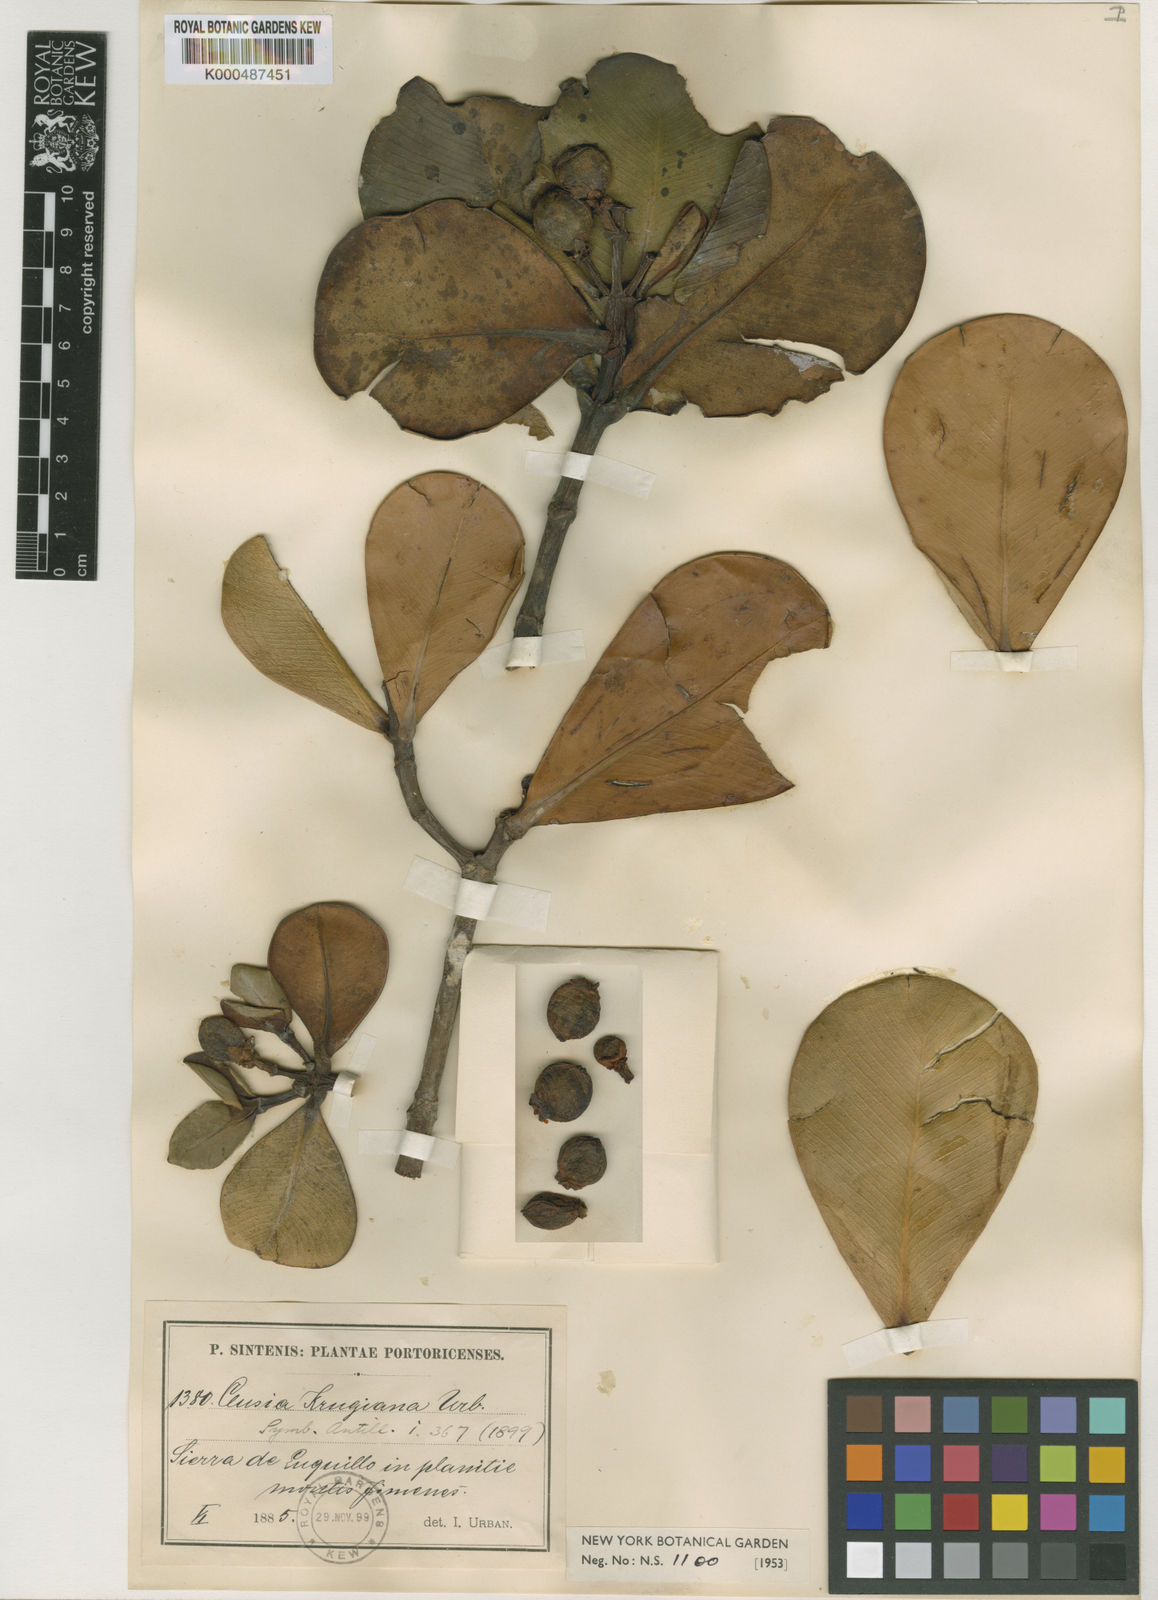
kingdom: Plantae
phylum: Tracheophyta
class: Magnoliopsida
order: Malpighiales
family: Clusiaceae
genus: Clusia
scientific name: Clusia clusioides
